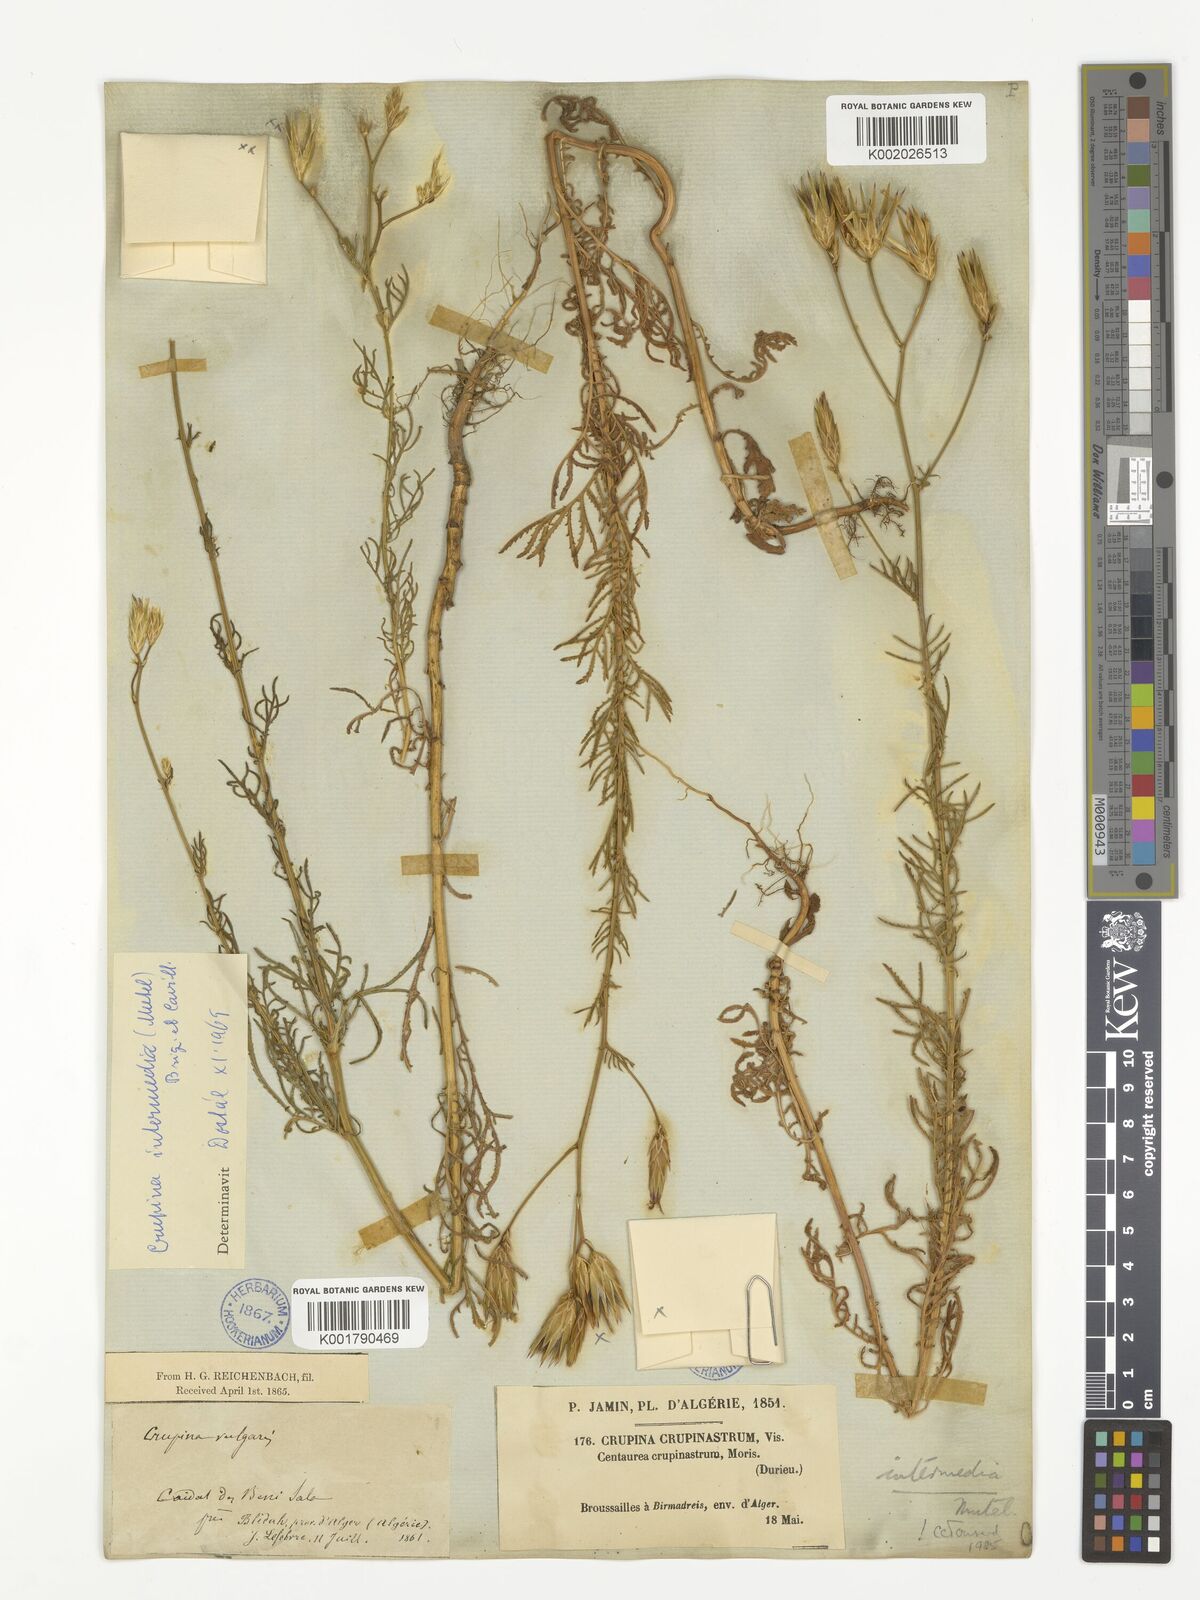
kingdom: Plantae
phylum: Tracheophyta
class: Magnoliopsida
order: Asterales
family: Asteraceae
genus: Crupina
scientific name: Crupina crupinastrum
